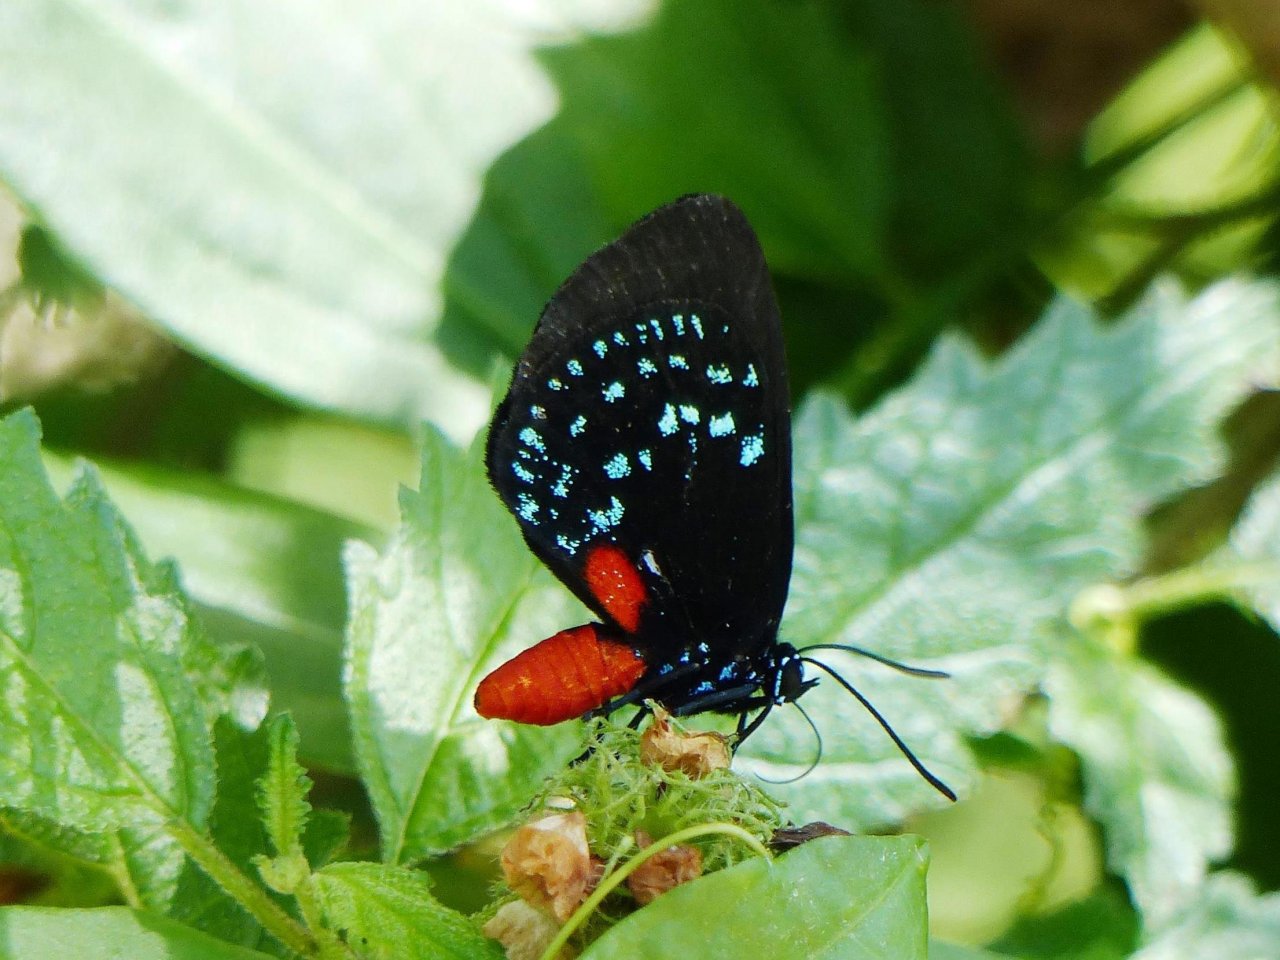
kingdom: Animalia
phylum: Arthropoda
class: Insecta
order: Lepidoptera
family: Lycaenidae
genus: Eumaeus
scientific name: Eumaeus atala
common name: Atala
